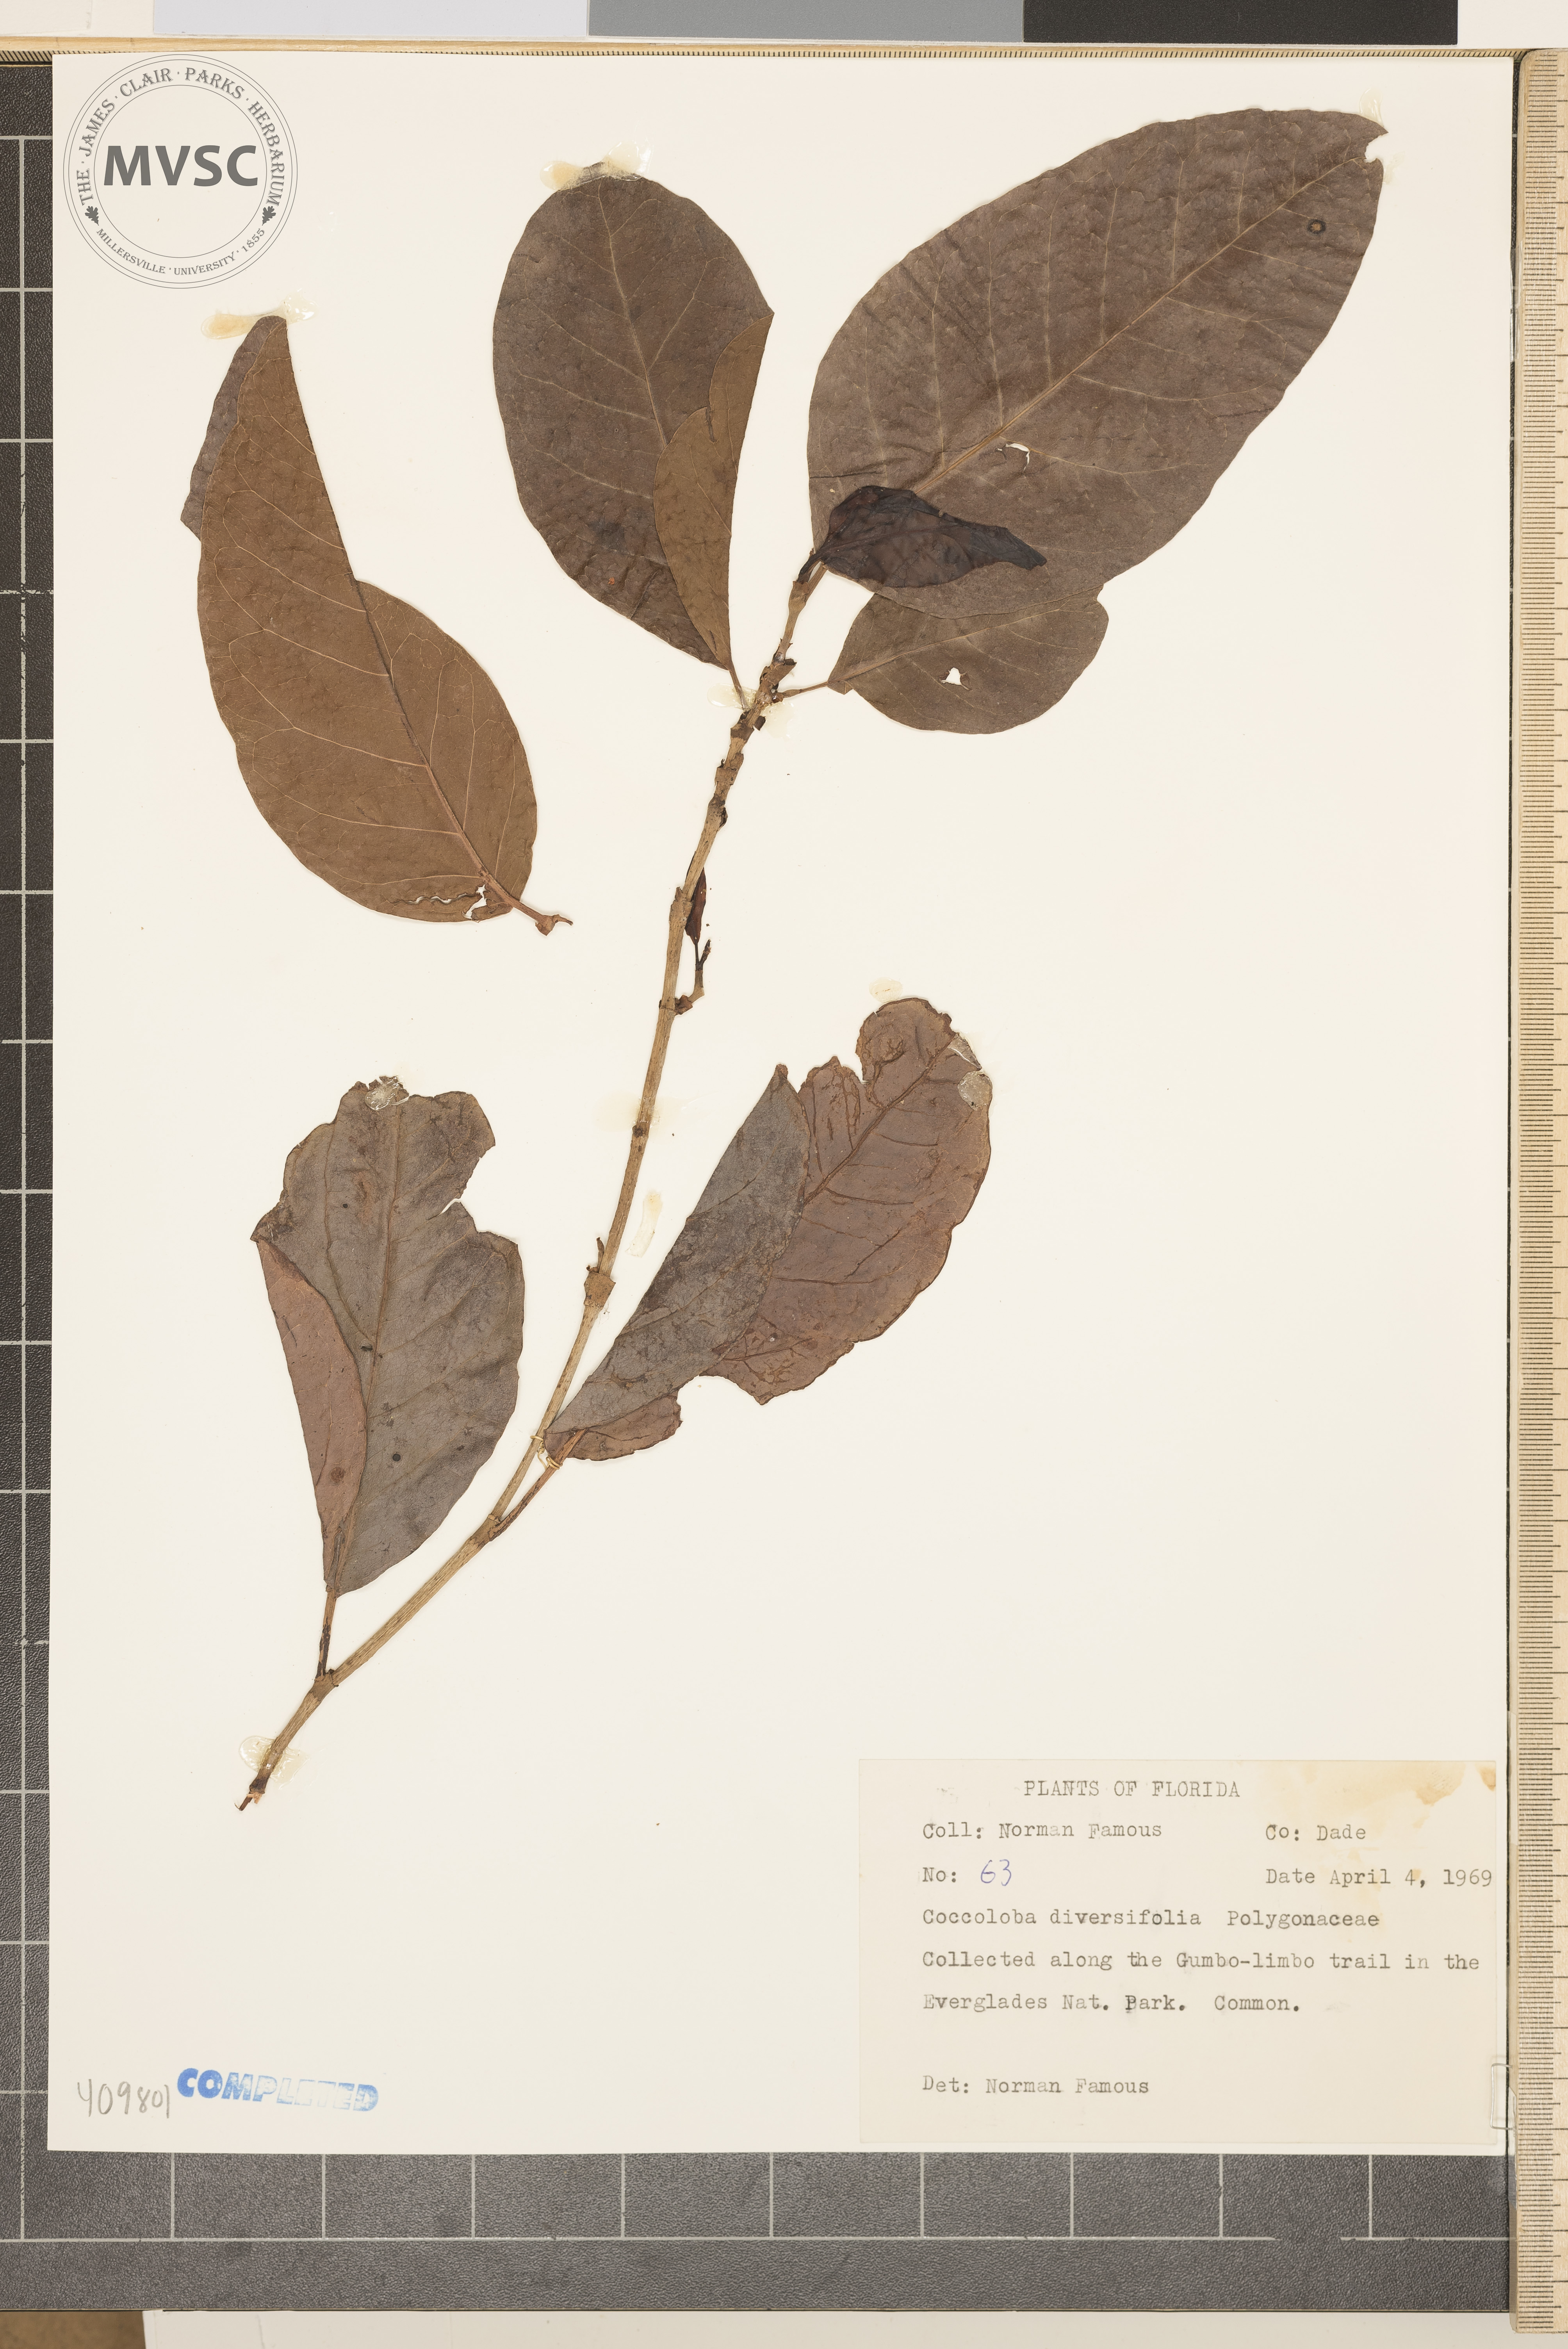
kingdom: Plantae
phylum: Tracheophyta
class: Magnoliopsida
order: Caryophyllales
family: Polygonaceae
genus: Coccoloba
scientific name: Coccoloba diversifolia
